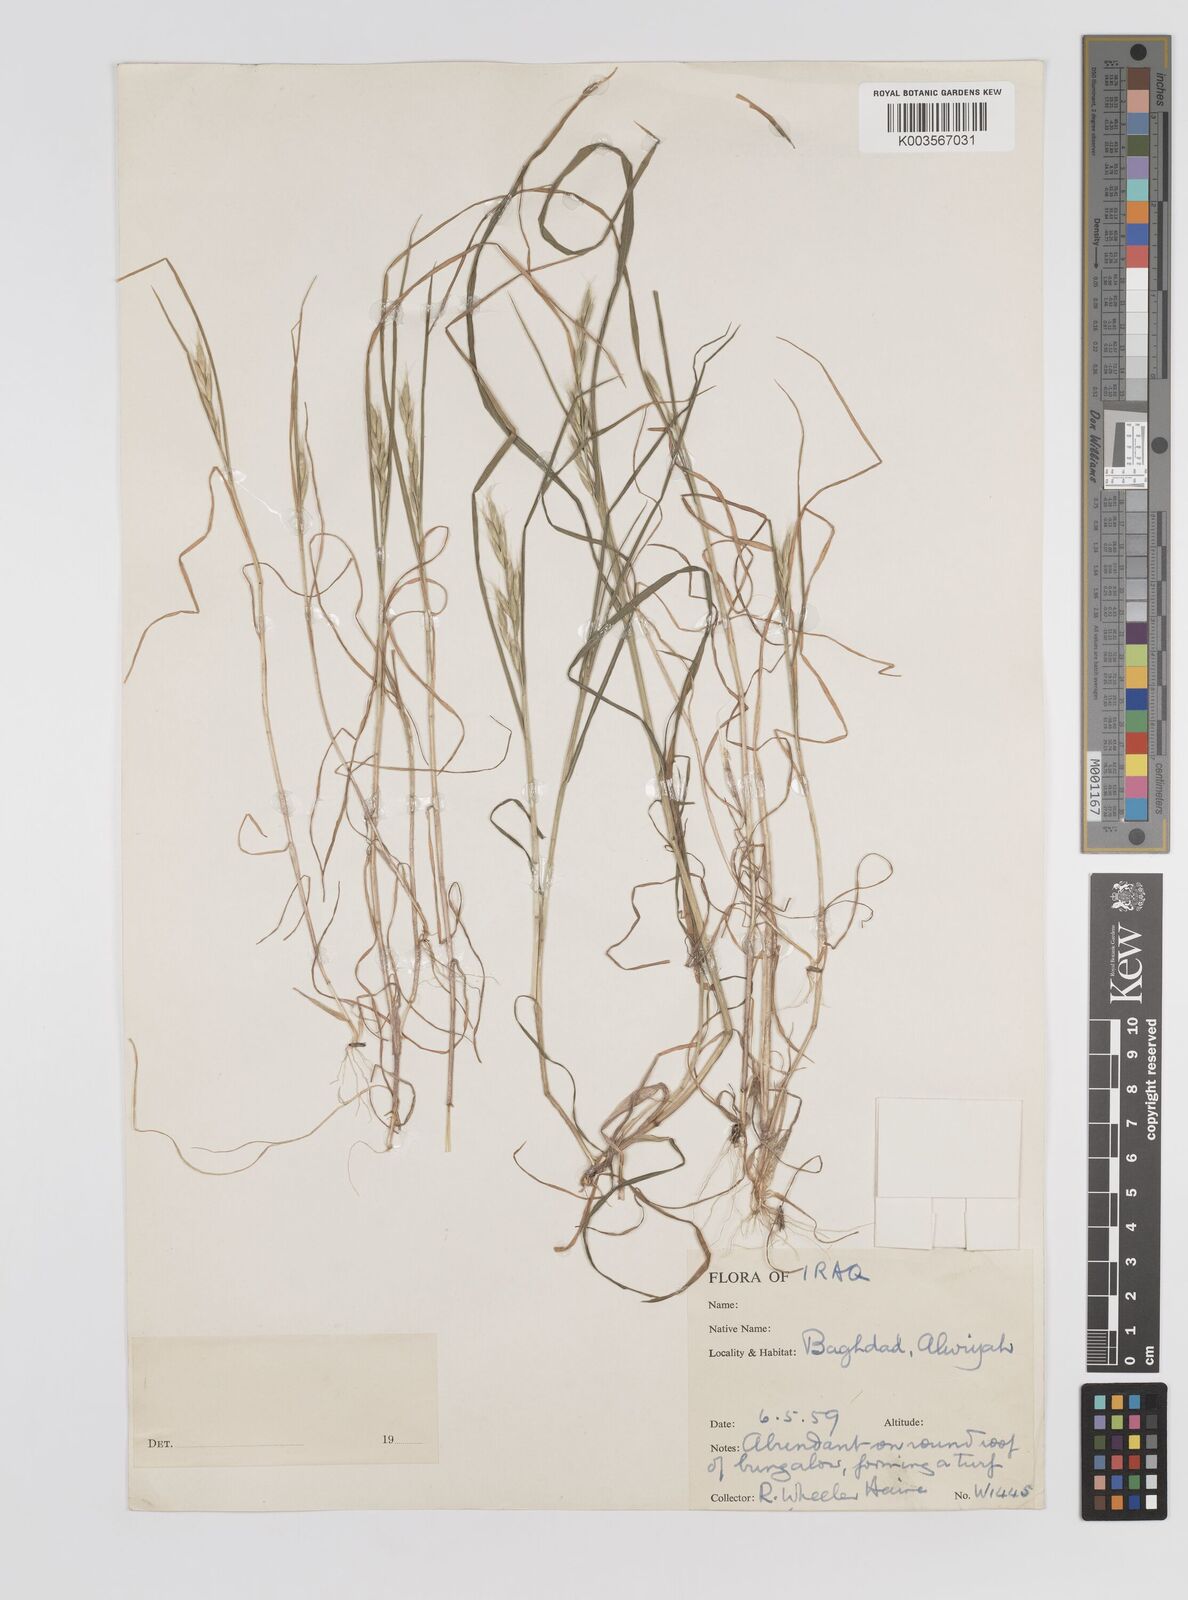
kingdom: Plantae
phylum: Tracheophyta
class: Liliopsida
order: Poales
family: Poaceae
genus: Bromus
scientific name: Bromus danthoniae
